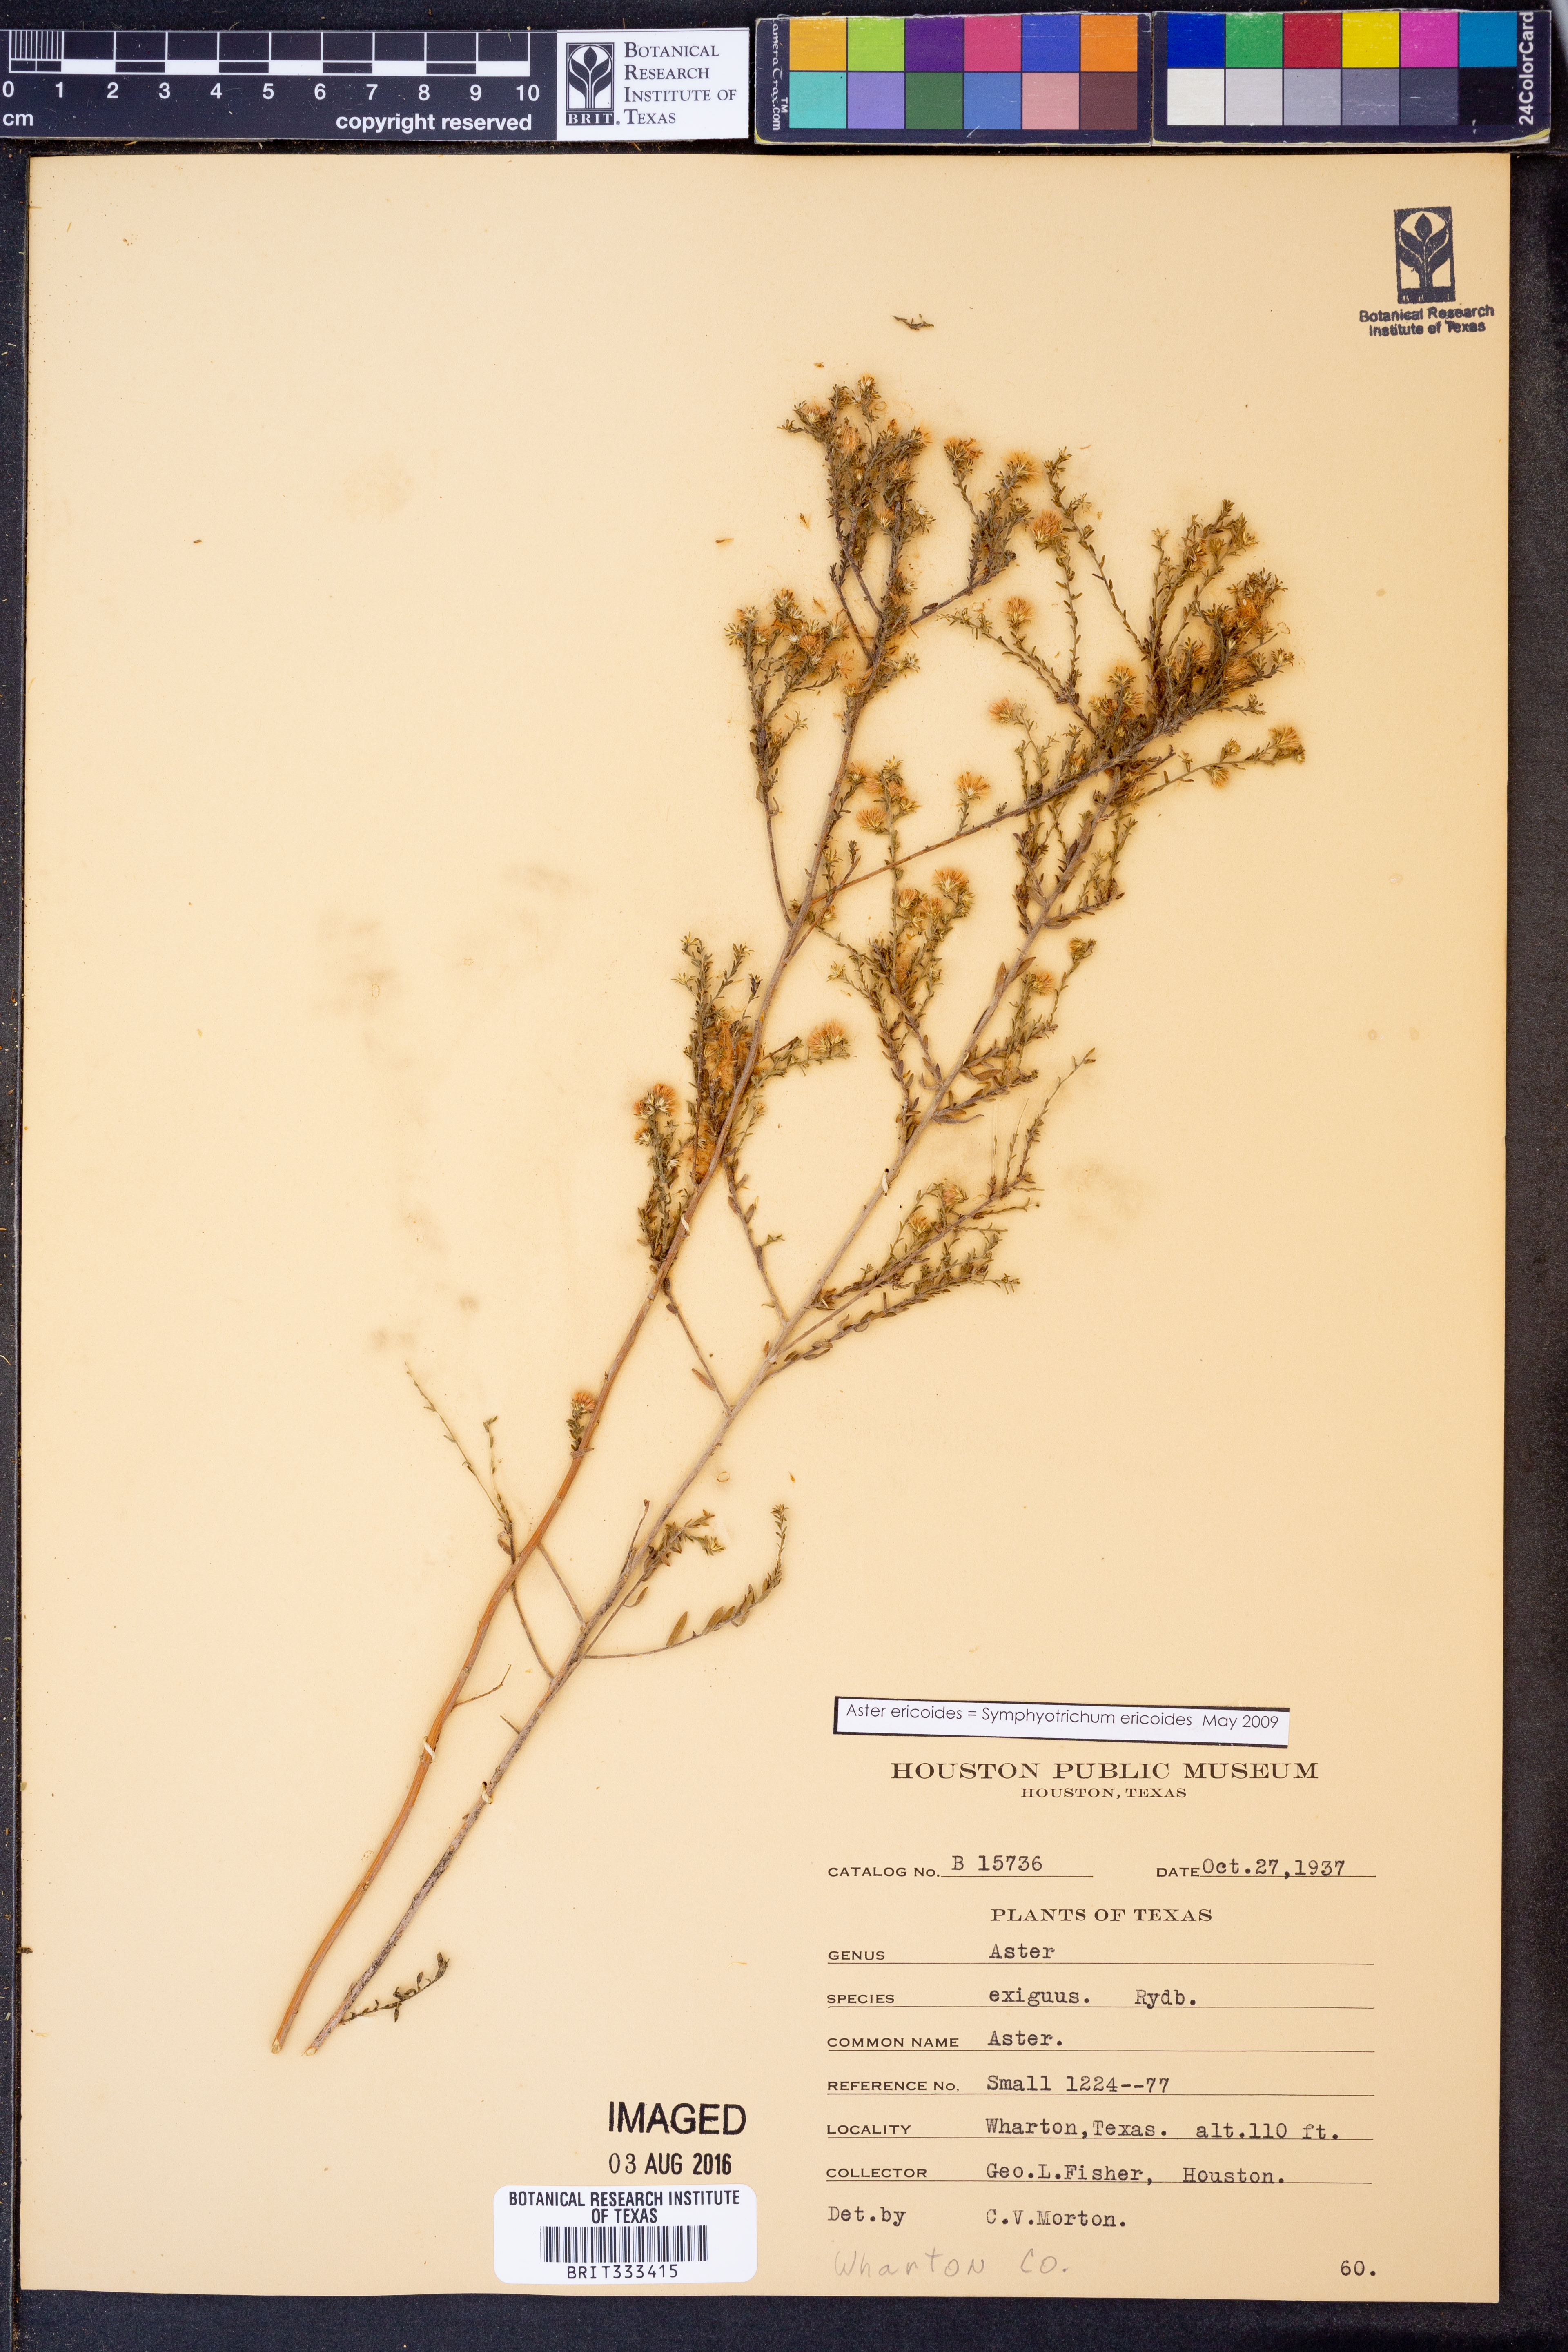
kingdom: Plantae
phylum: Tracheophyta
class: Magnoliopsida
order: Asterales
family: Asteraceae
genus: Symphyotrichum
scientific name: Symphyotrichum ericoides
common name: Heath aster
